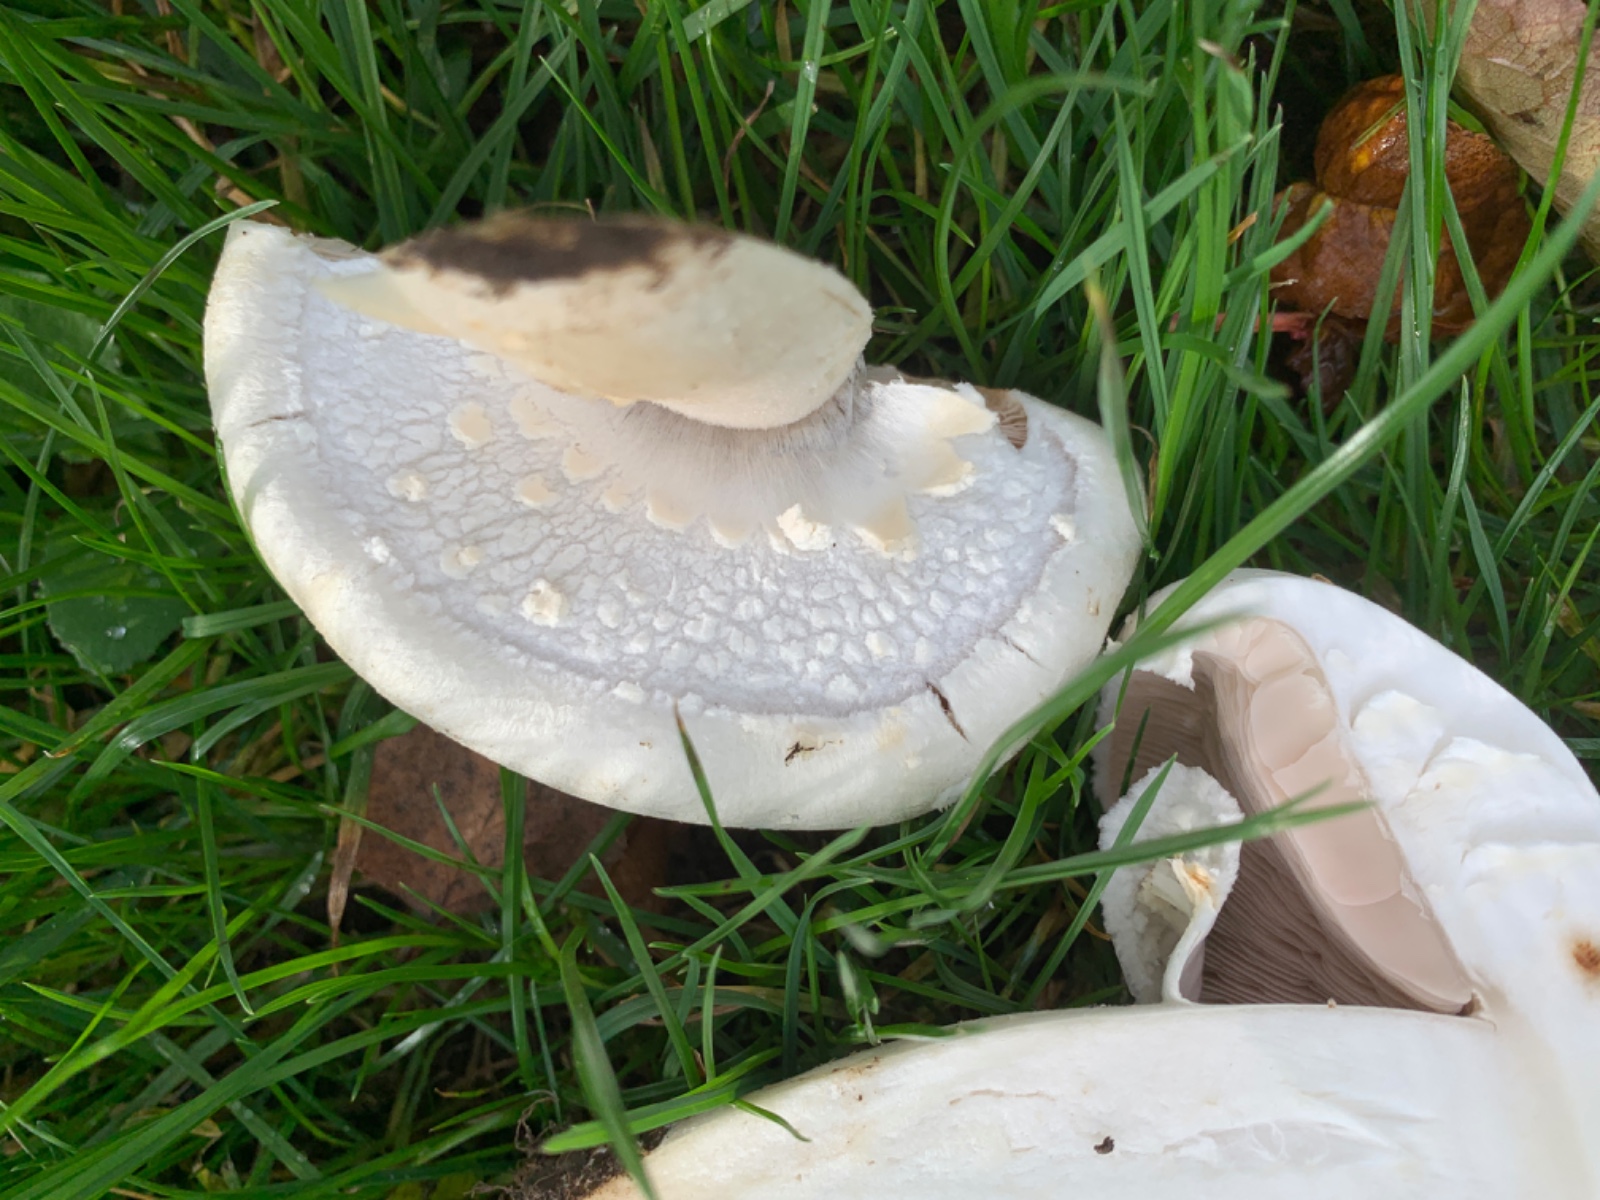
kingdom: Fungi
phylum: Basidiomycota
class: Agaricomycetes
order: Agaricales
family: Agaricaceae
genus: Agaricus
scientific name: Agaricus arvensis
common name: ager-champignon
